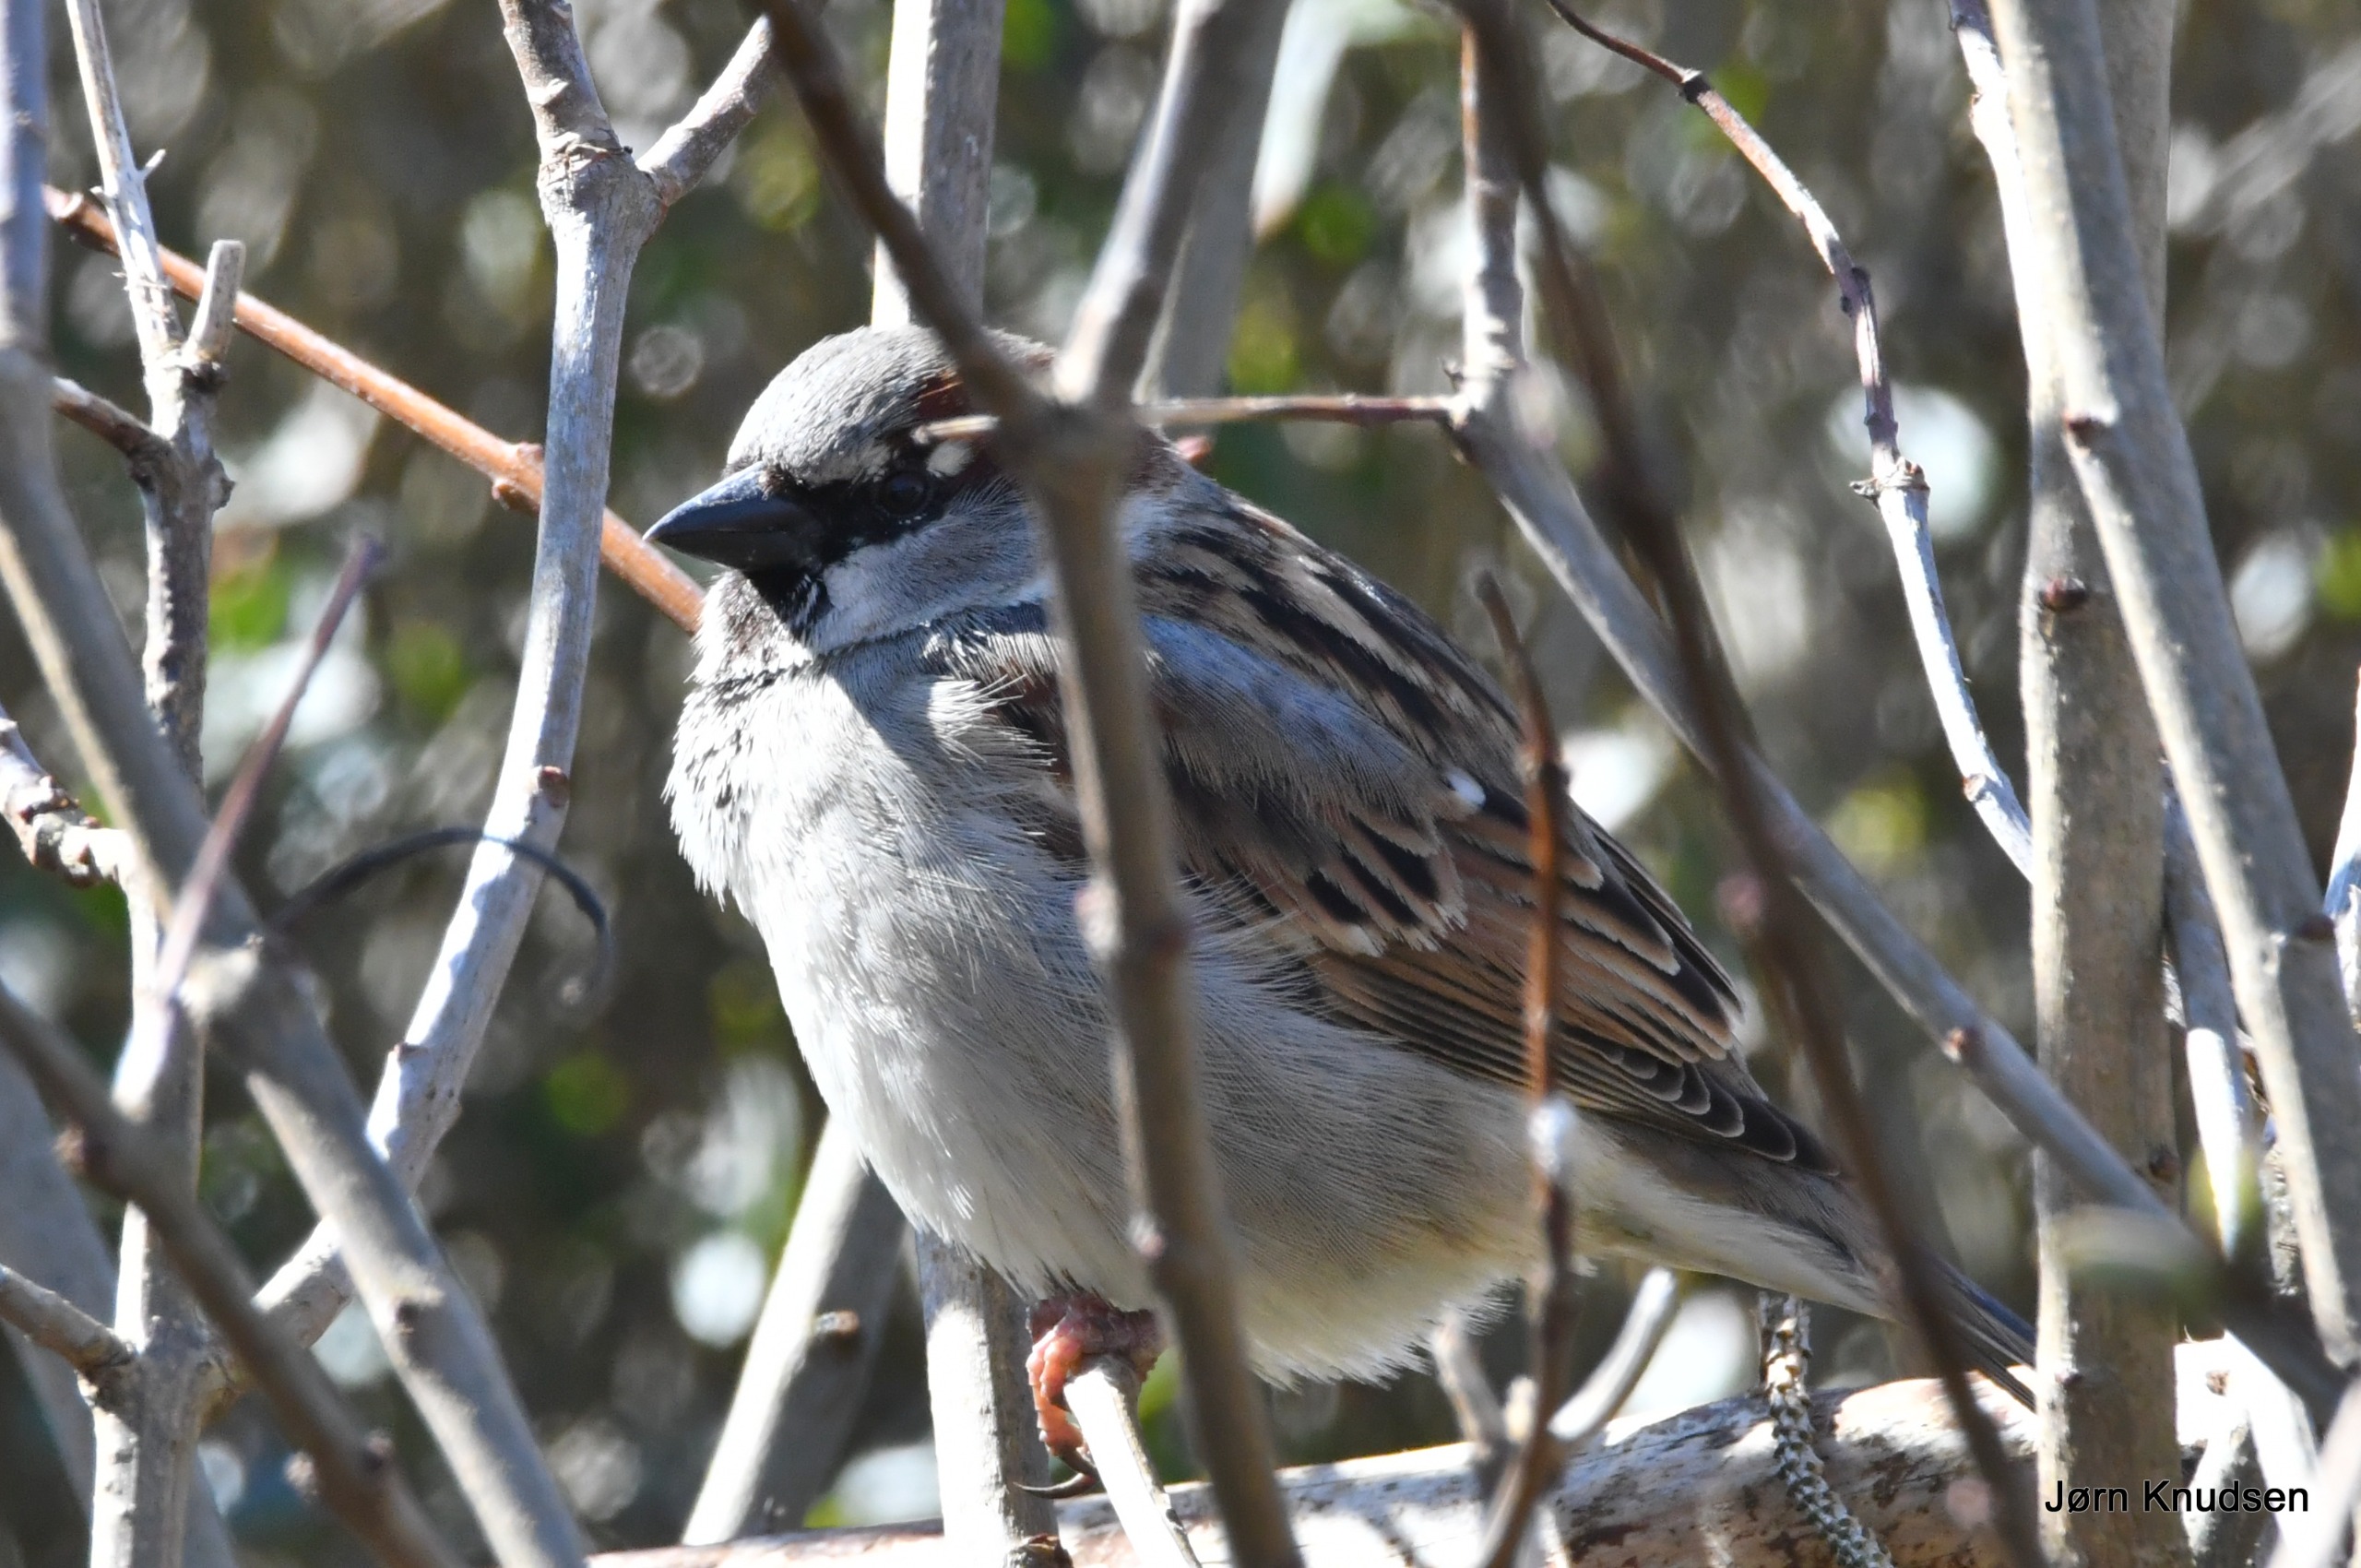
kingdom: Animalia
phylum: Chordata
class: Aves
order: Passeriformes
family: Passeridae
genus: Passer
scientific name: Passer domesticus
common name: Gråspurv
